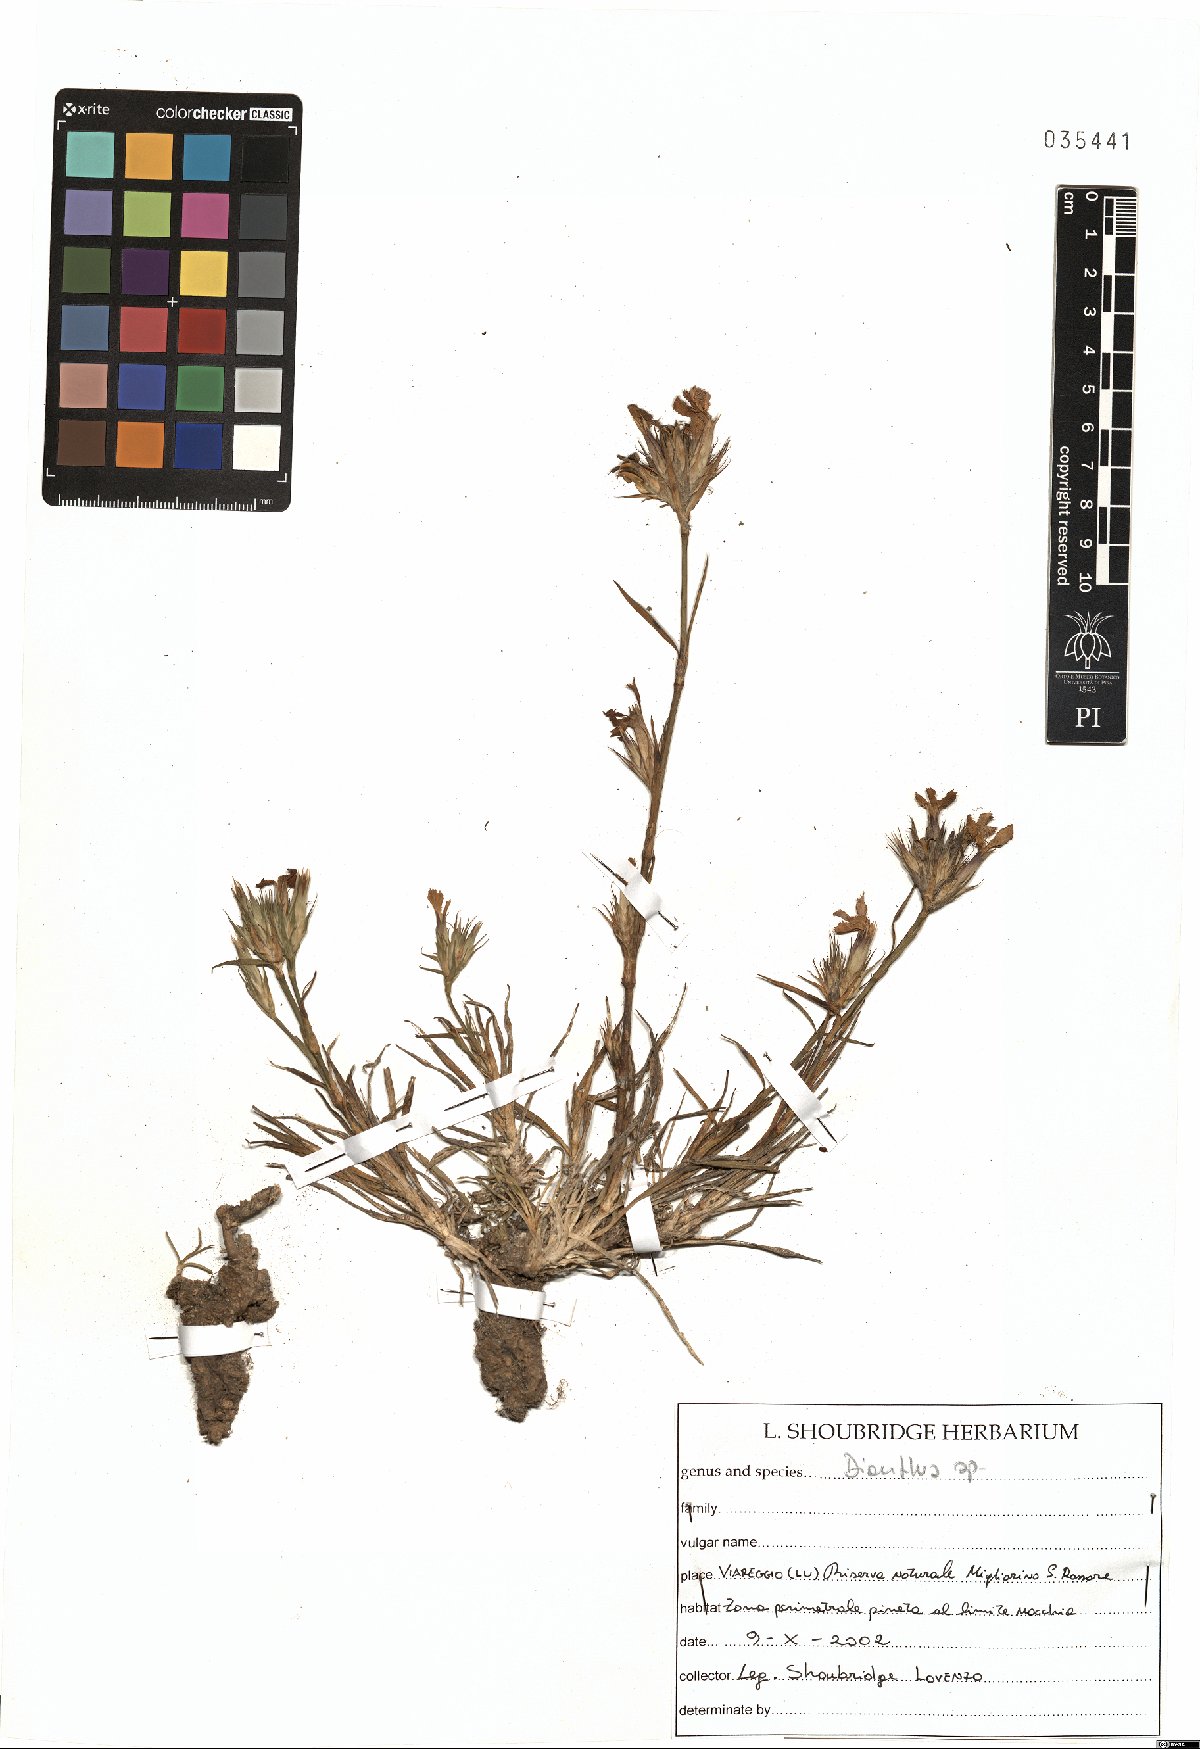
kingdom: Plantae
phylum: Tracheophyta
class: Magnoliopsida
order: Caryophyllales
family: Caryophyllaceae
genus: Dianthus
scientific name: Dianthus
